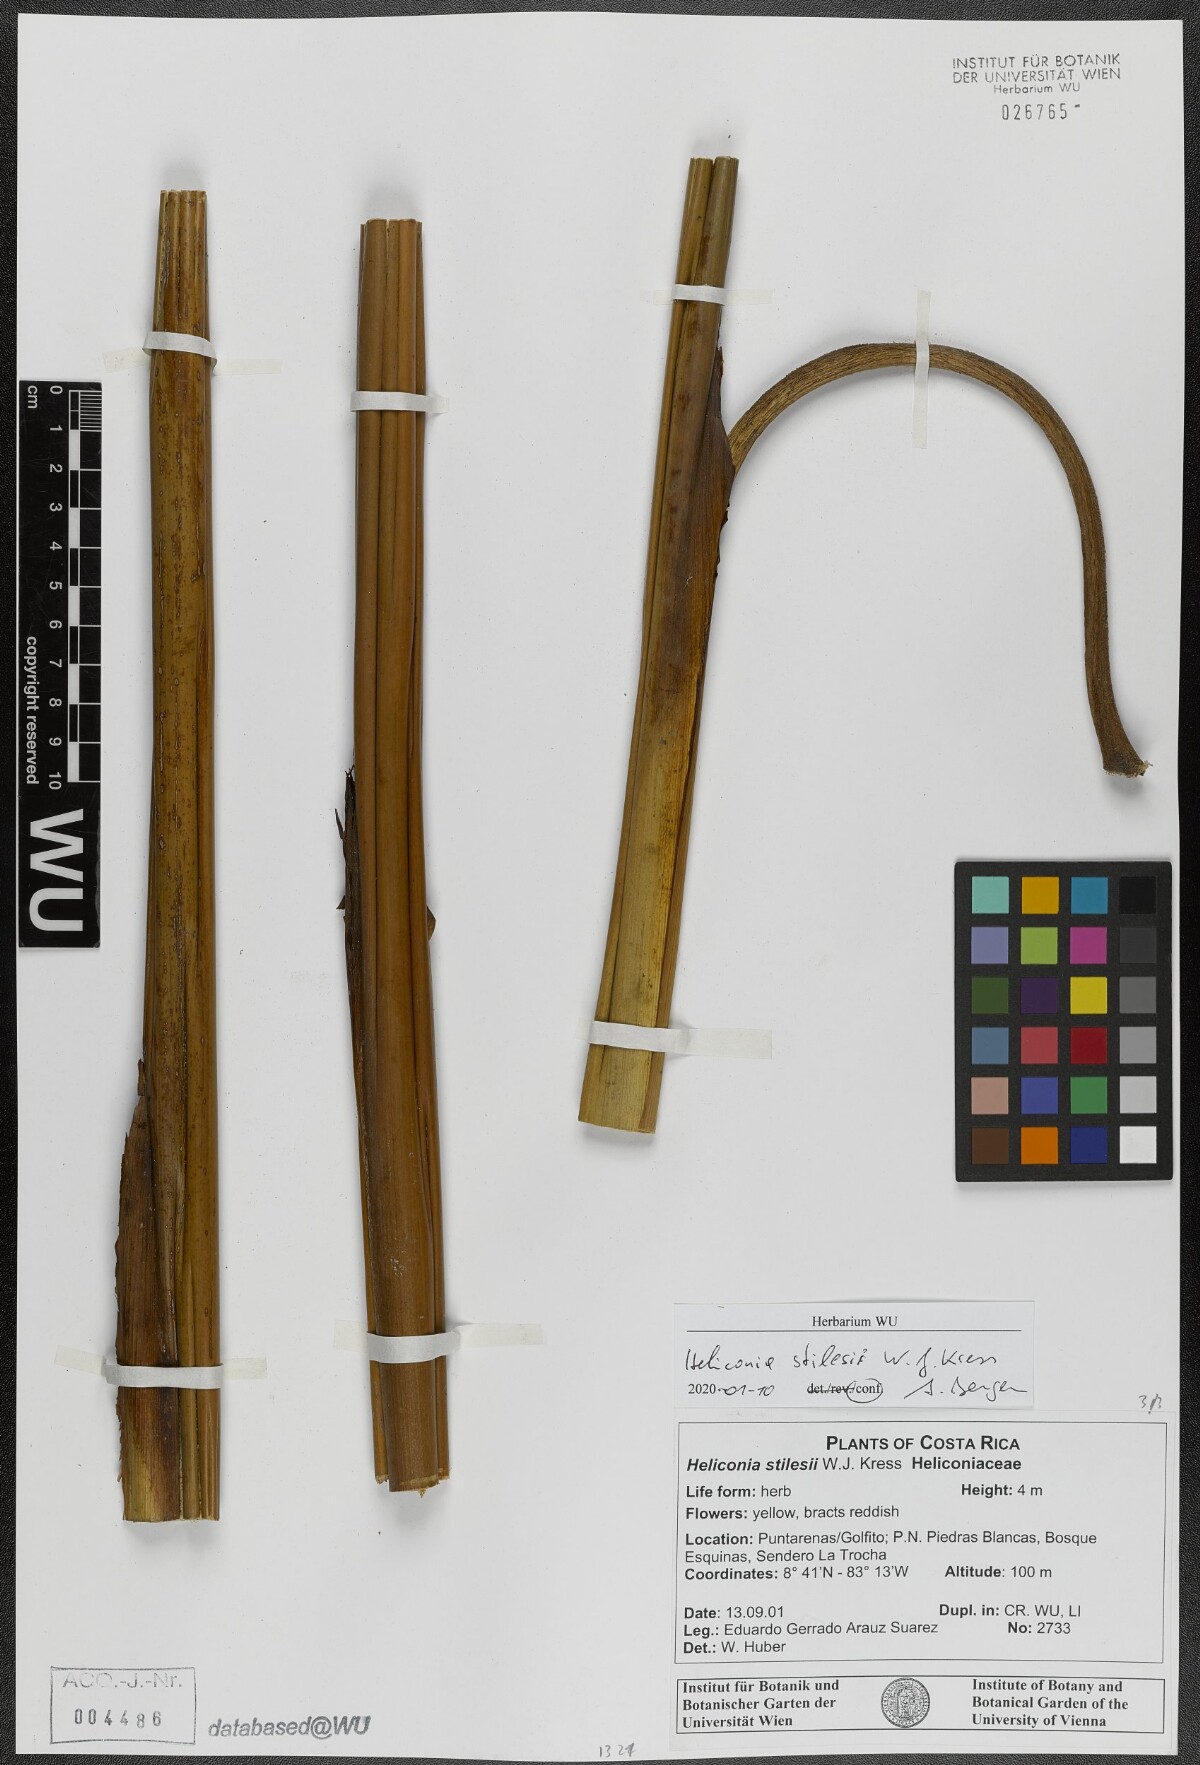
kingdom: Plantae
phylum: Tracheophyta
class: Liliopsida
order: Zingiberales
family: Heliconiaceae
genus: Heliconia
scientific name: Heliconia stilesii
